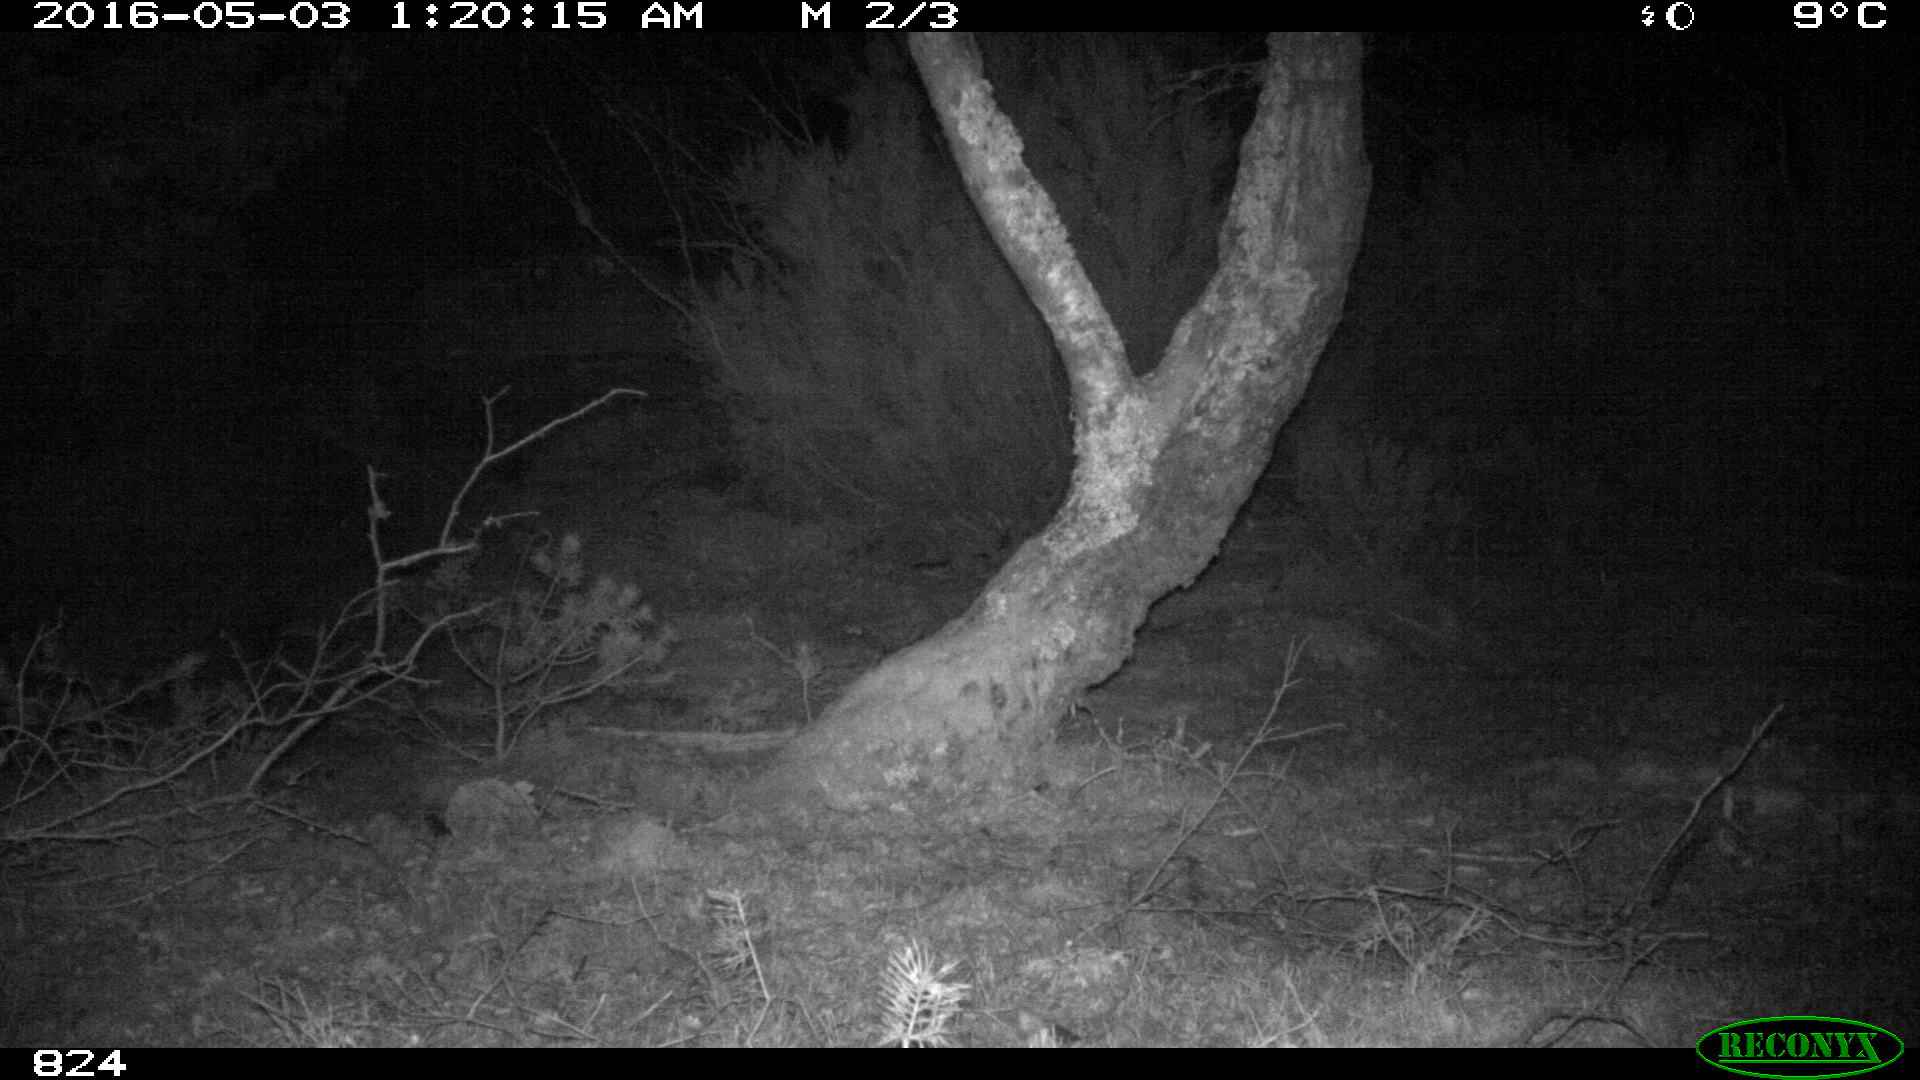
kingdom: Animalia
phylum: Chordata
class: Mammalia
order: Artiodactyla
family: Suidae
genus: Sus
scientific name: Sus scrofa
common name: Wild boar
